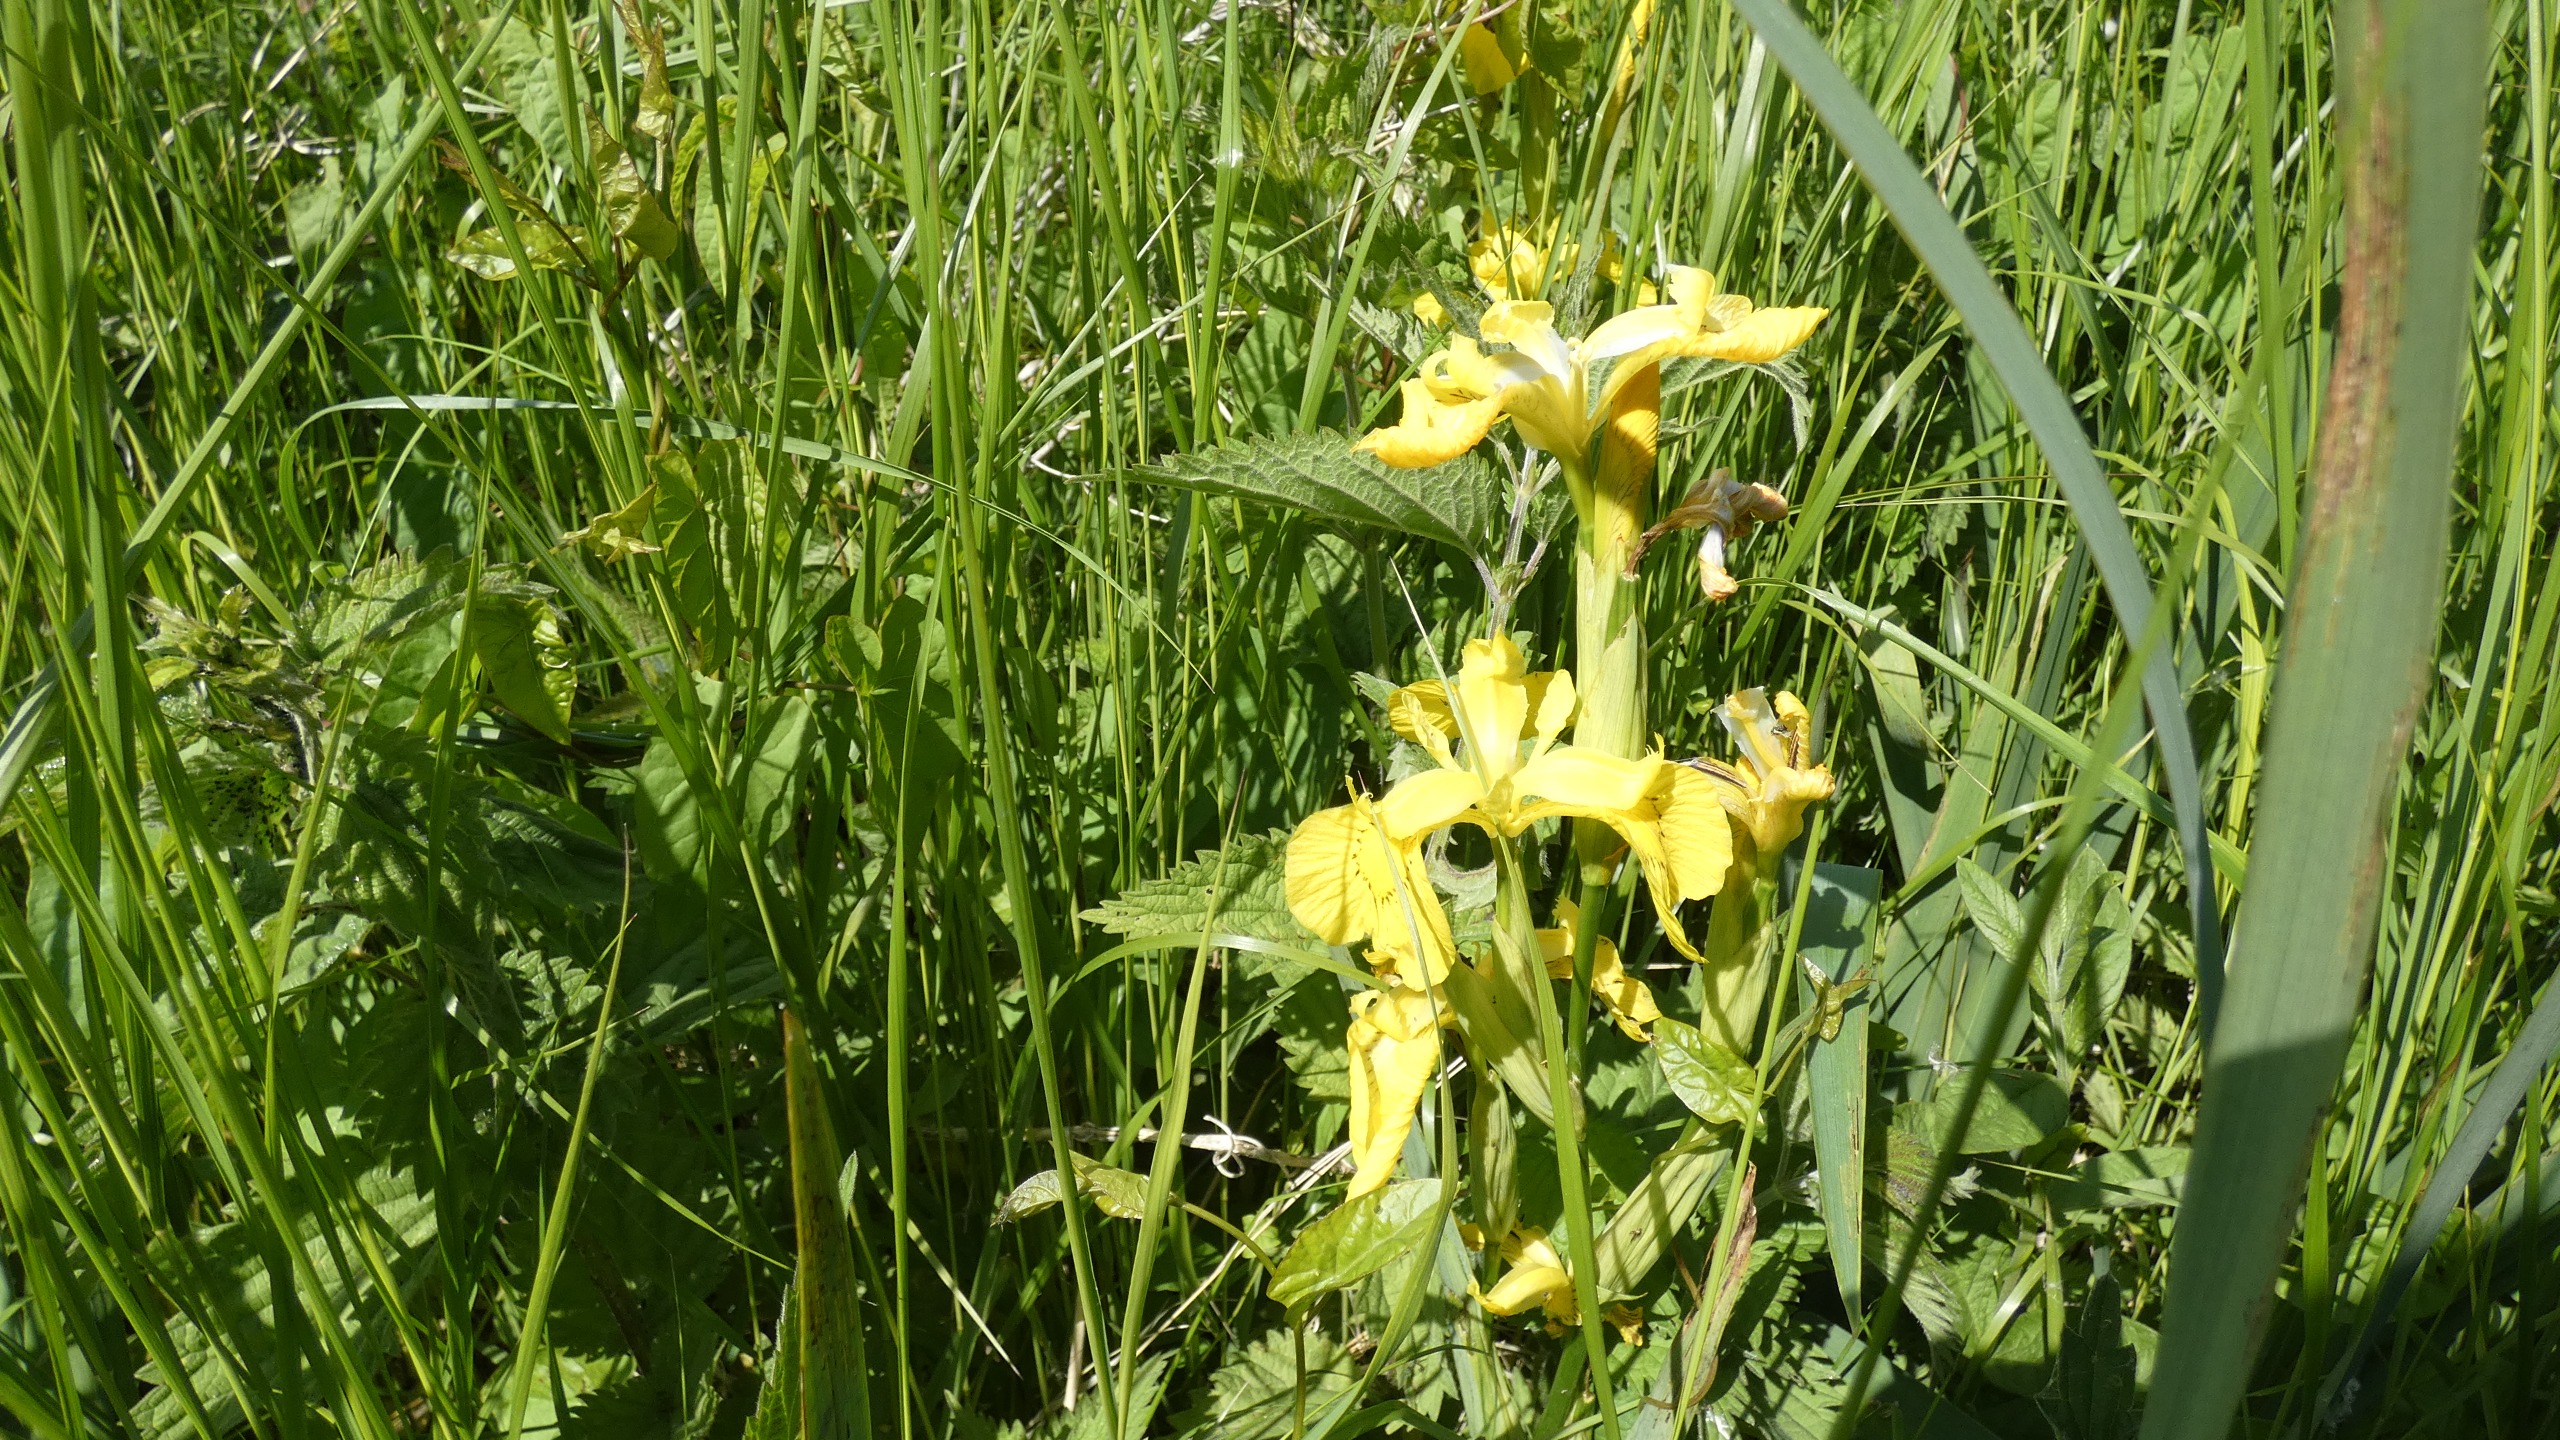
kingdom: Plantae
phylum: Tracheophyta
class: Liliopsida
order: Asparagales
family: Iridaceae
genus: Iris
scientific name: Iris pseudacorus
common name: Gul iris
